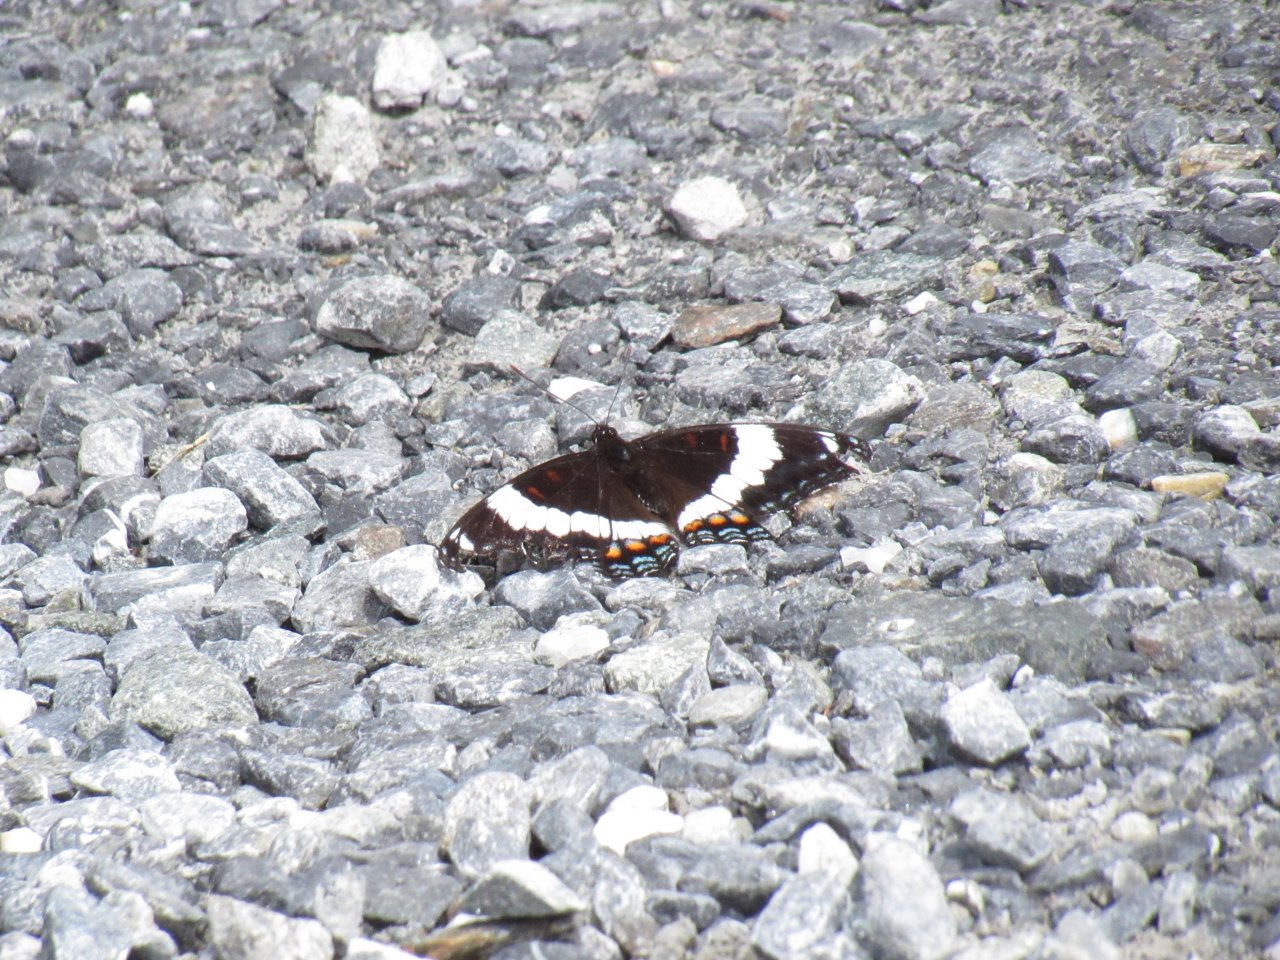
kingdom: Animalia
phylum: Arthropoda
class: Insecta
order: Lepidoptera
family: Nymphalidae
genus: Limenitis
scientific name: Limenitis arthemis
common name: Red-spotted Admiral
